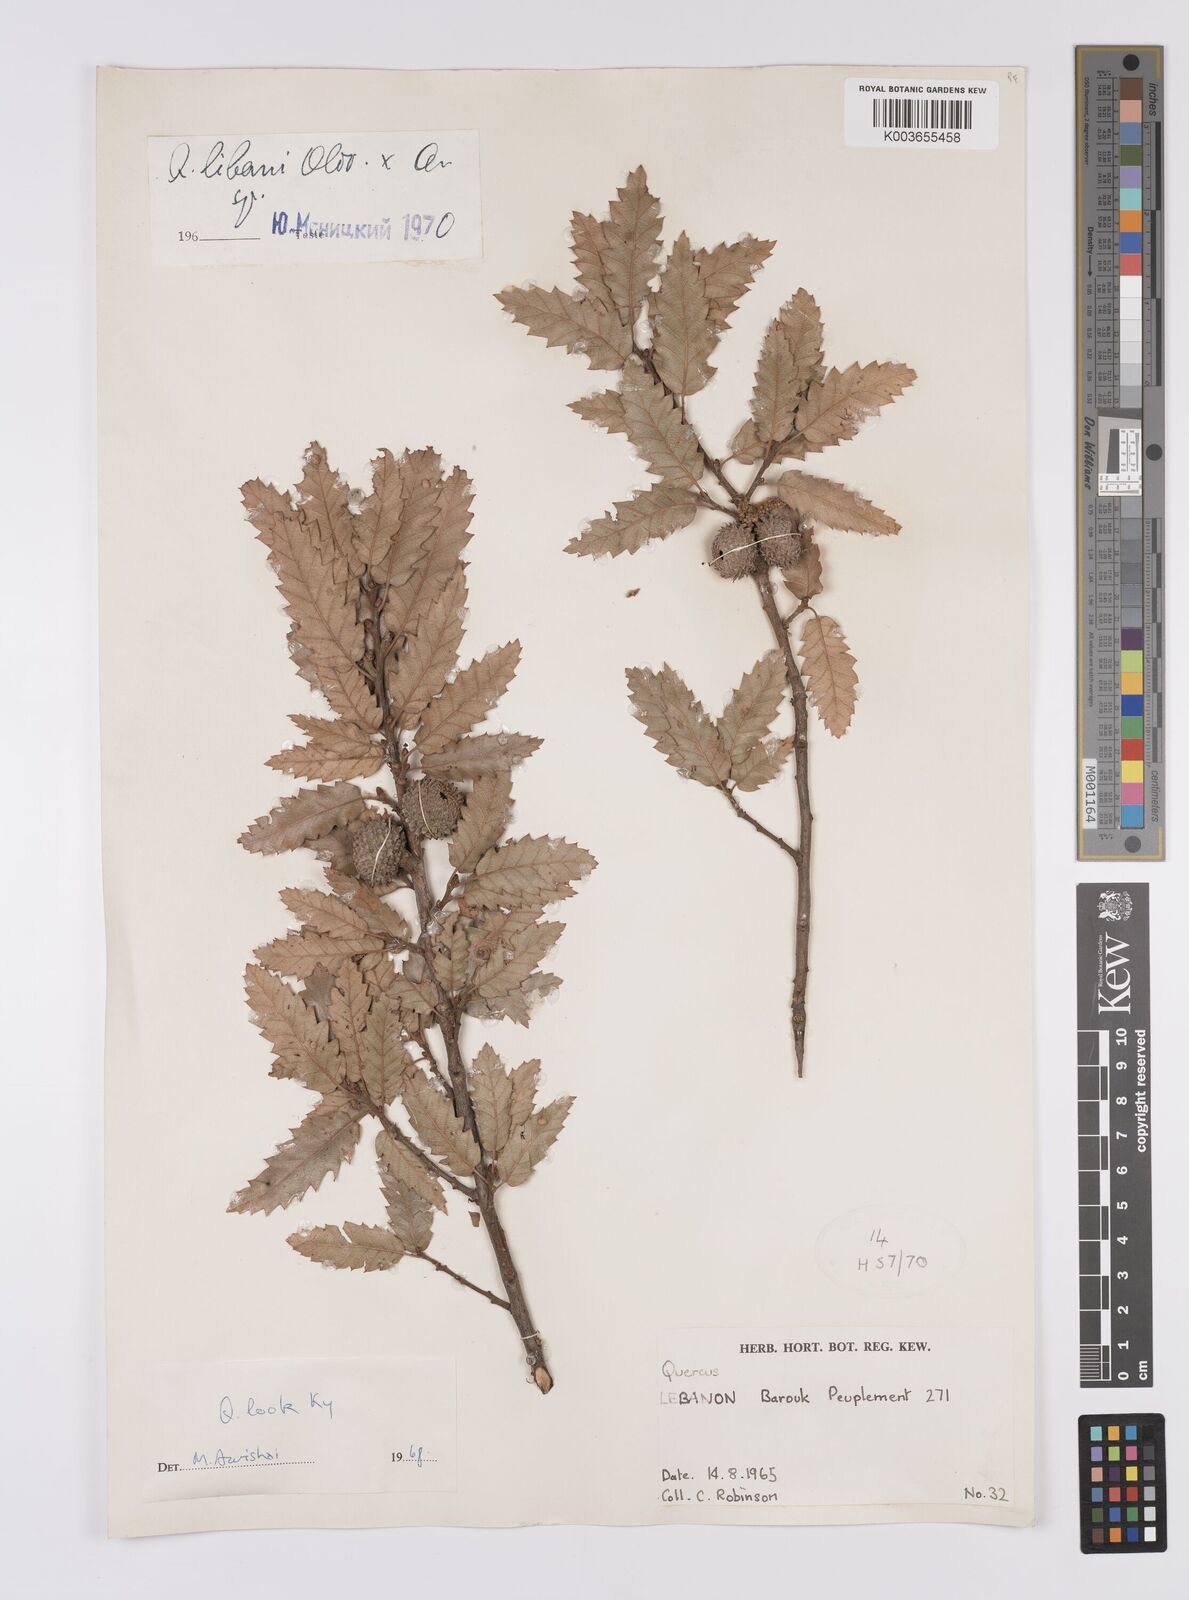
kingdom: Plantae
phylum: Tracheophyta
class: Magnoliopsida
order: Fagales
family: Fagaceae
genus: Quercus
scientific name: Quercus look
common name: Look oak
